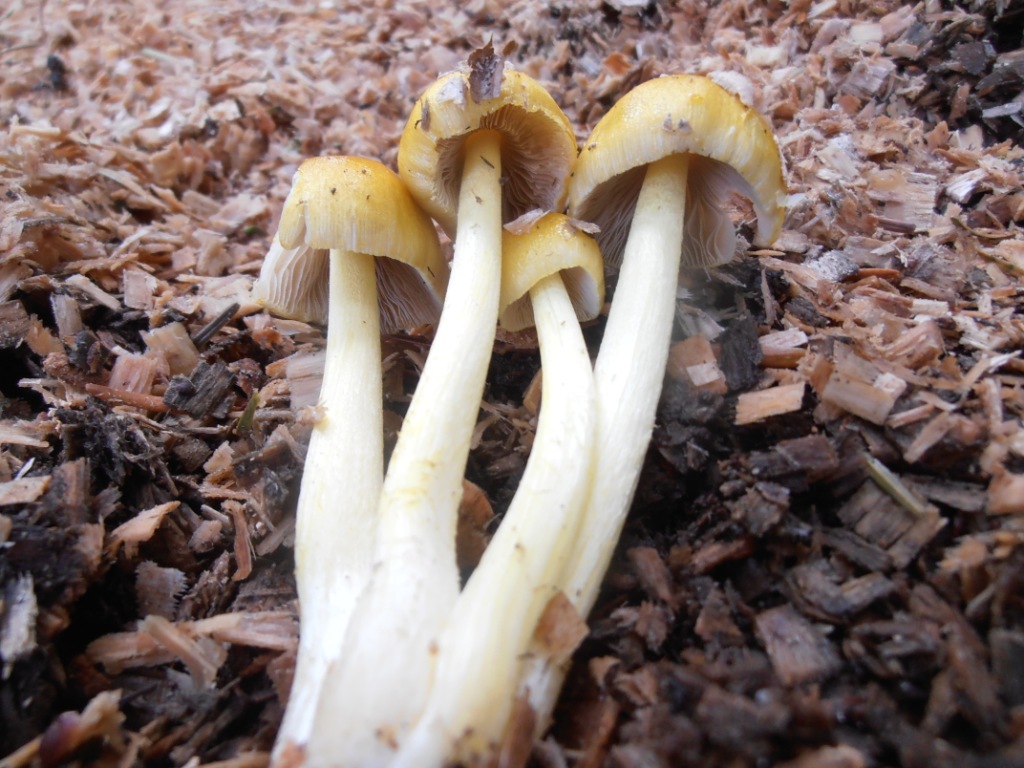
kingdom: Fungi
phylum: Basidiomycota
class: Agaricomycetes
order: Agaricales
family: Bolbitiaceae
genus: Bolbitius
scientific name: Bolbitius titubans
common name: almindelig gulhat
